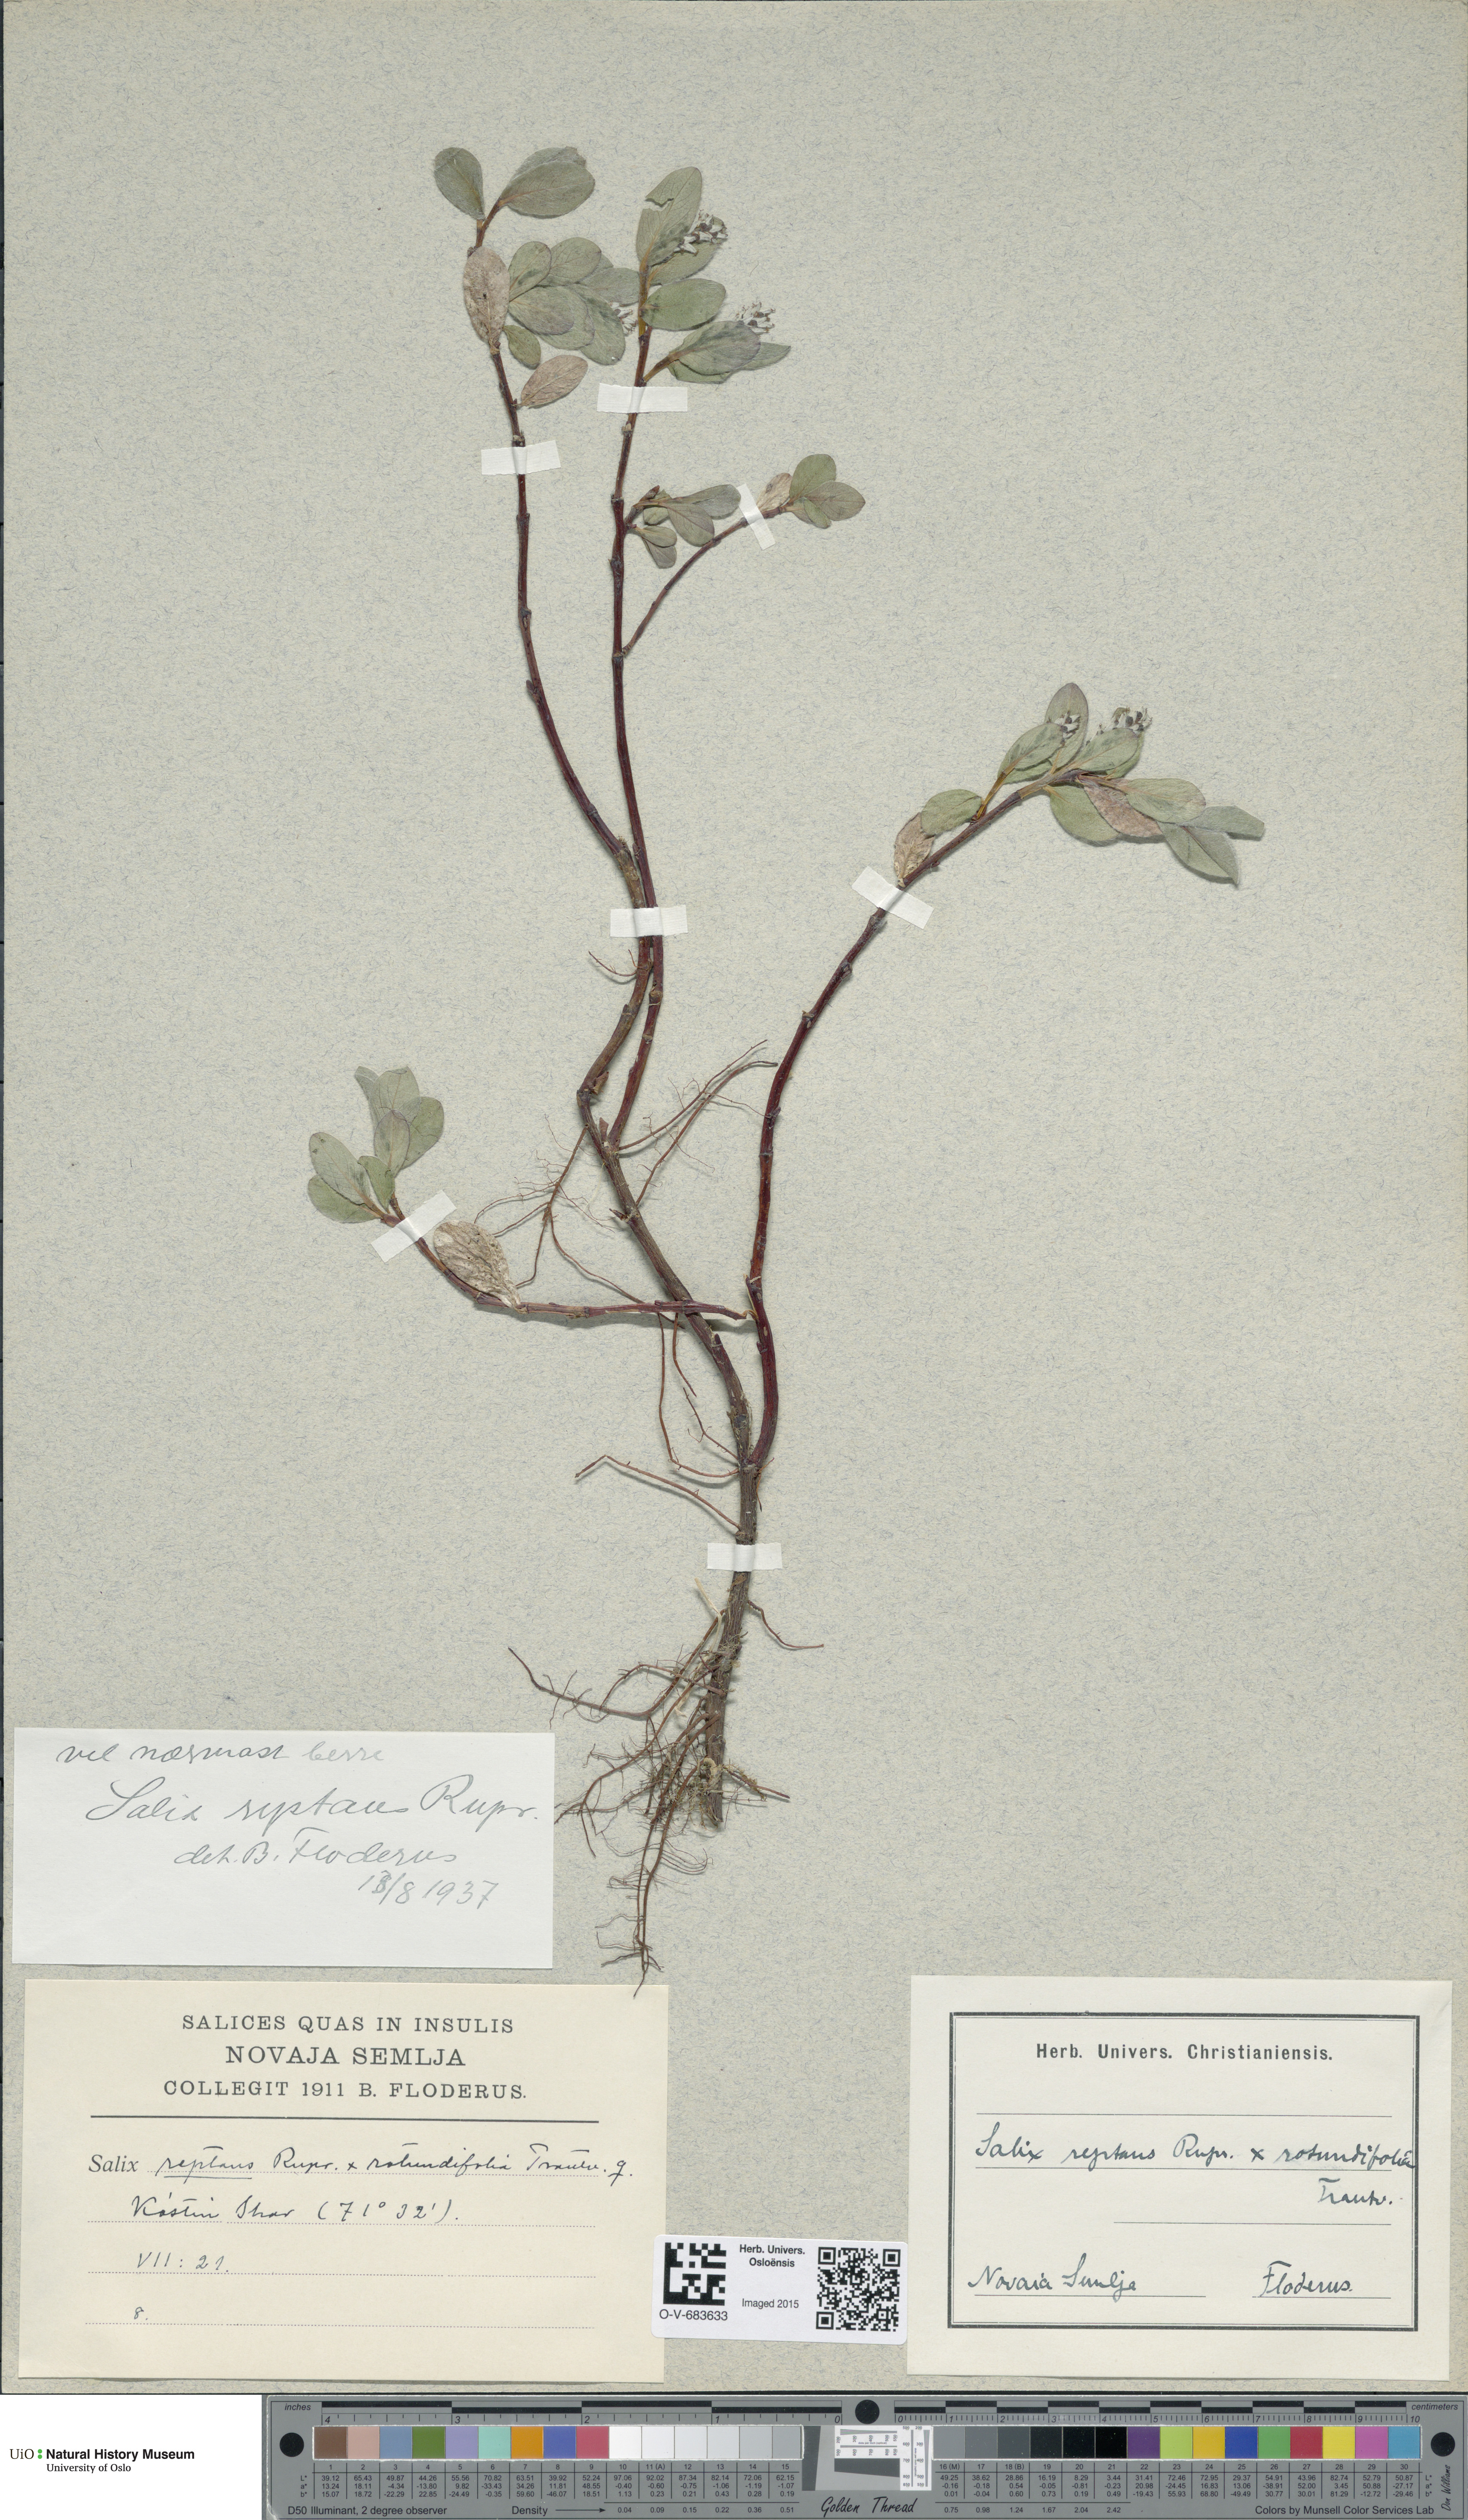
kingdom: Plantae
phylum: Tracheophyta
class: Magnoliopsida
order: Malpighiales
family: Salicaceae
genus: Salix
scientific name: Salix reptans
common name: Arctic creeping willow
